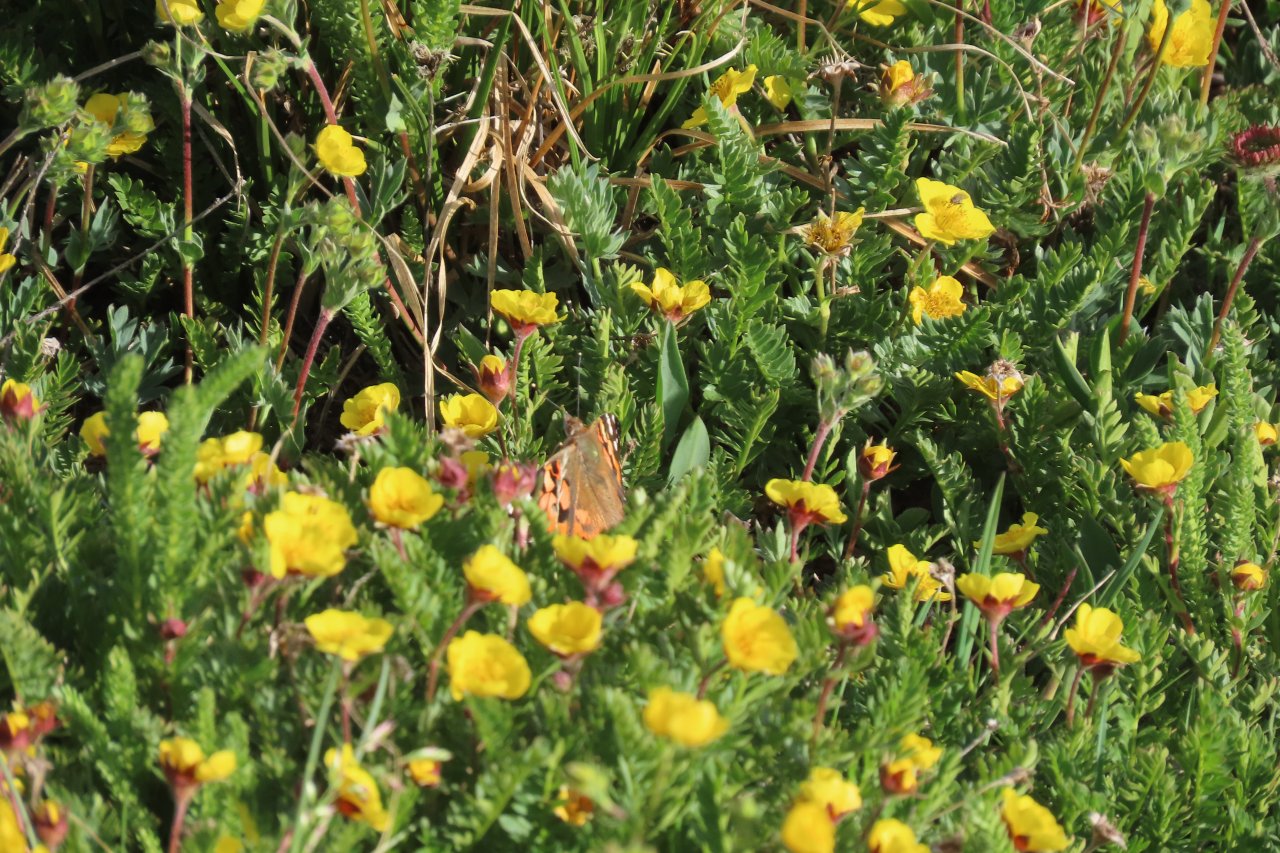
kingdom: Animalia
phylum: Arthropoda
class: Insecta
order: Lepidoptera
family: Nymphalidae
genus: Vanessa
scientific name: Vanessa cardui
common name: Painted Lady
